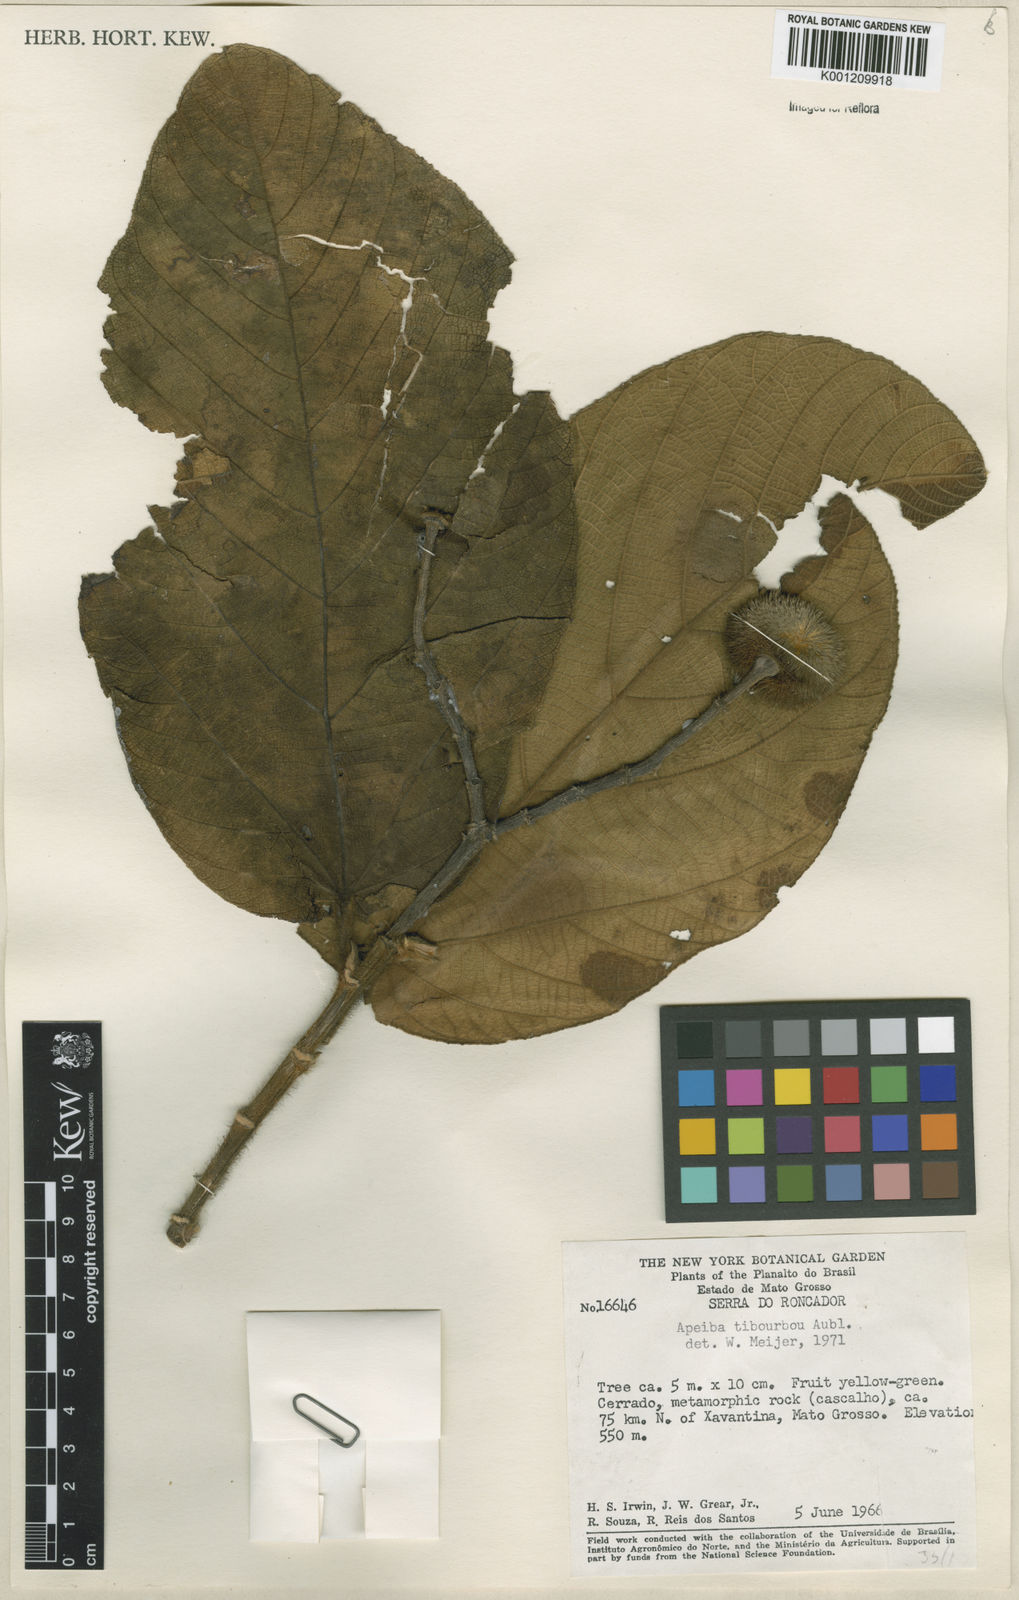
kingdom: Plantae
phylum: Tracheophyta
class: Magnoliopsida
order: Malvales
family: Malvaceae
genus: Apeiba
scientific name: Apeiba tibourbou
